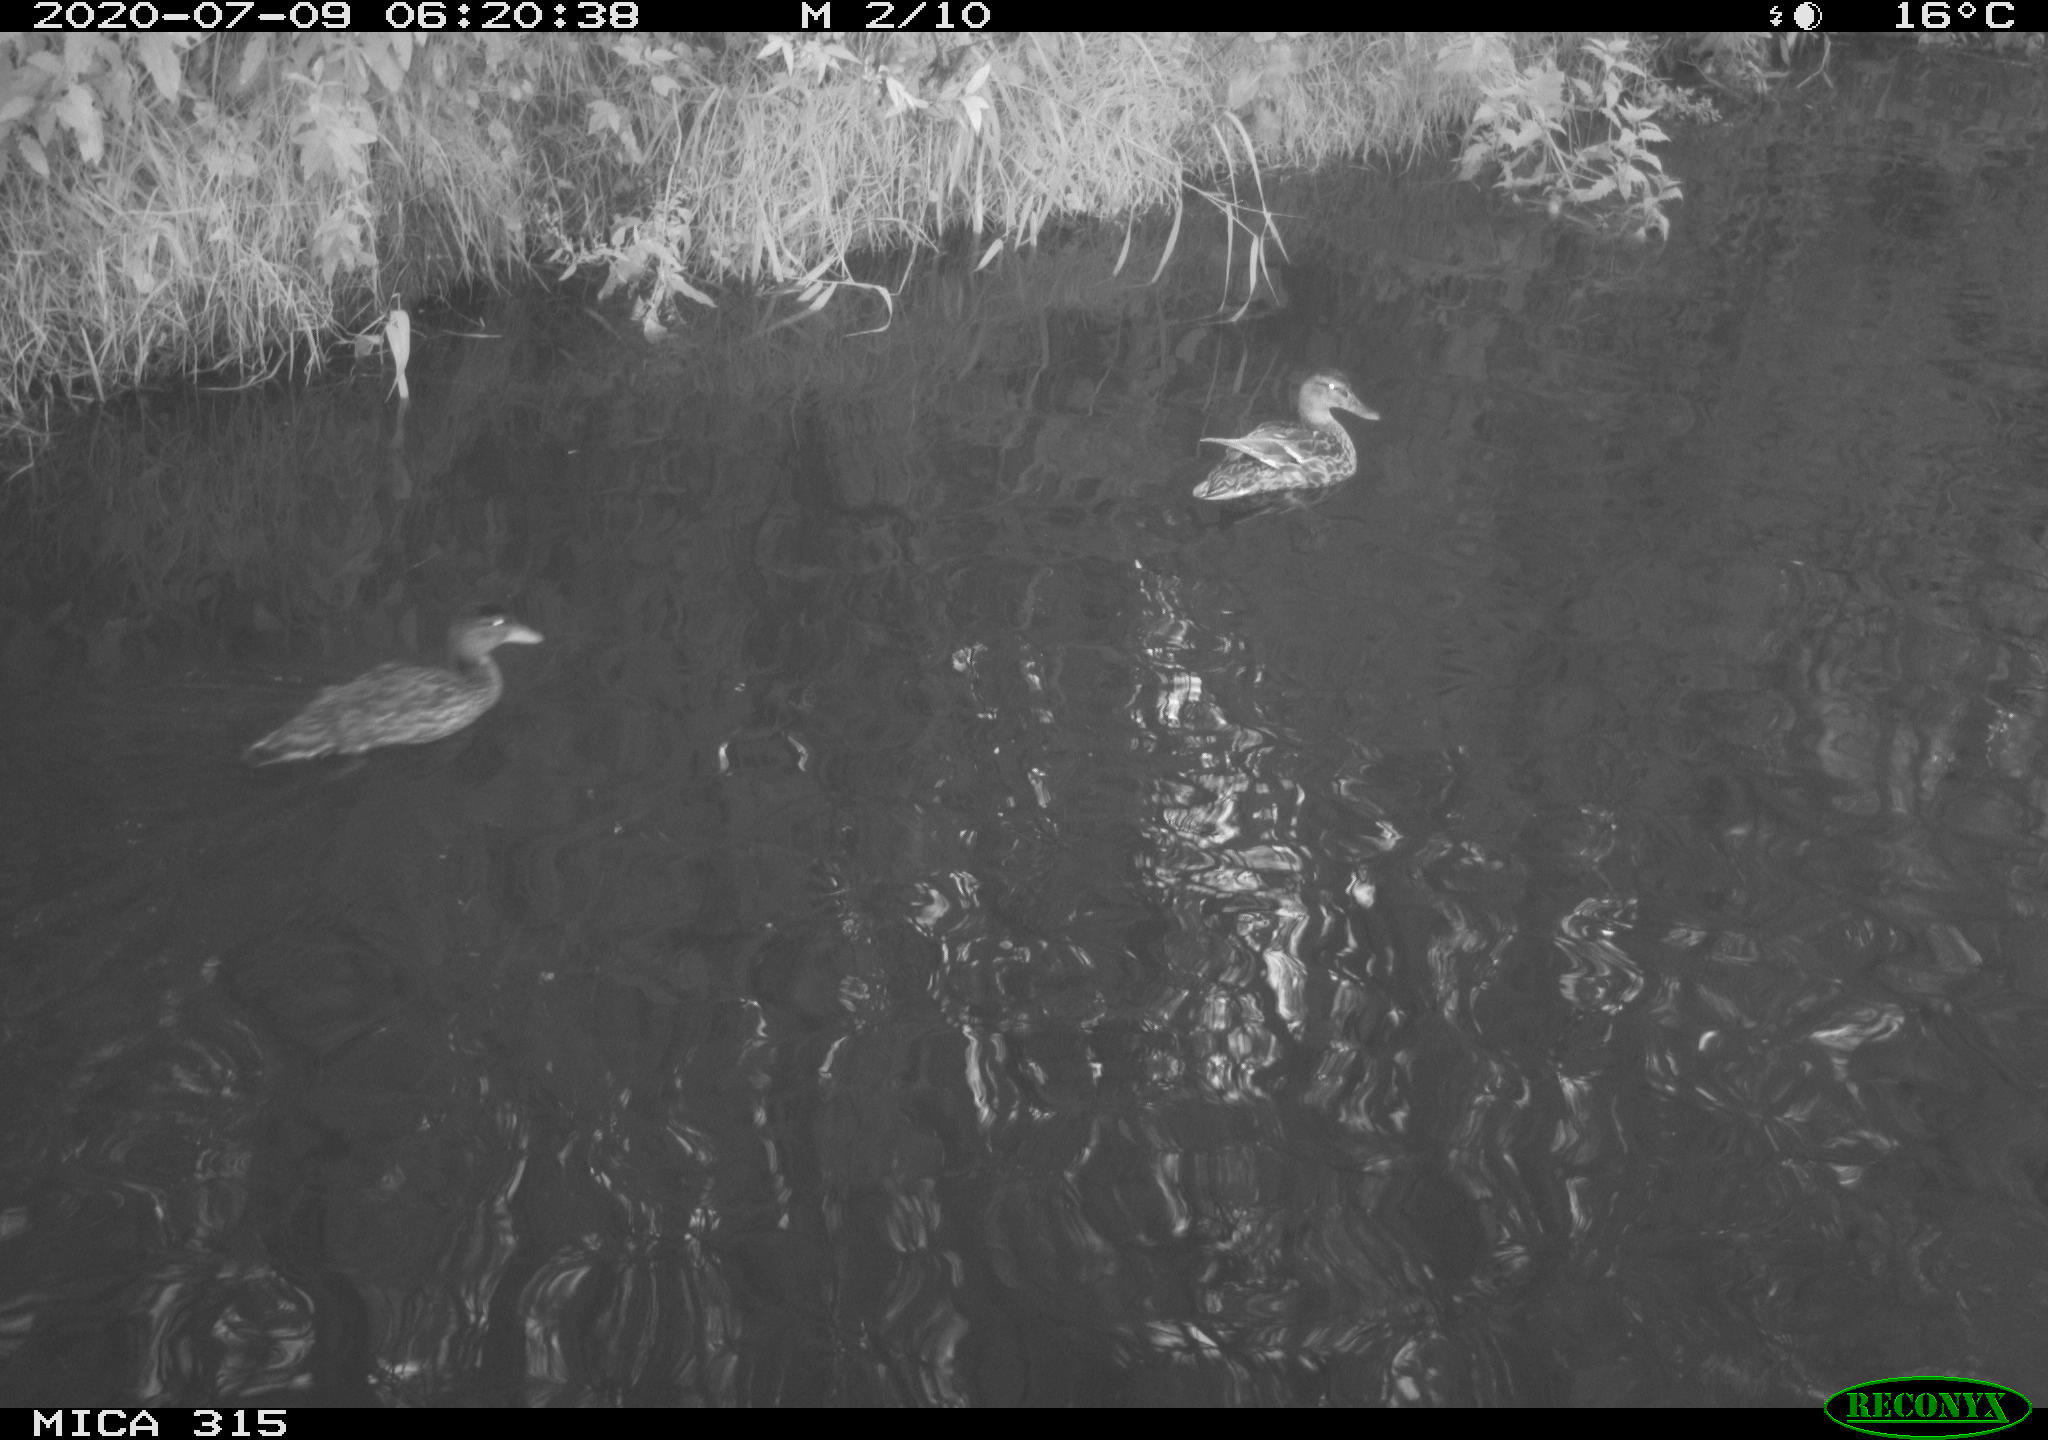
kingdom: Animalia
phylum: Chordata
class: Aves
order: Anseriformes
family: Anatidae
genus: Anas
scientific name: Anas platyrhynchos
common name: Mallard
